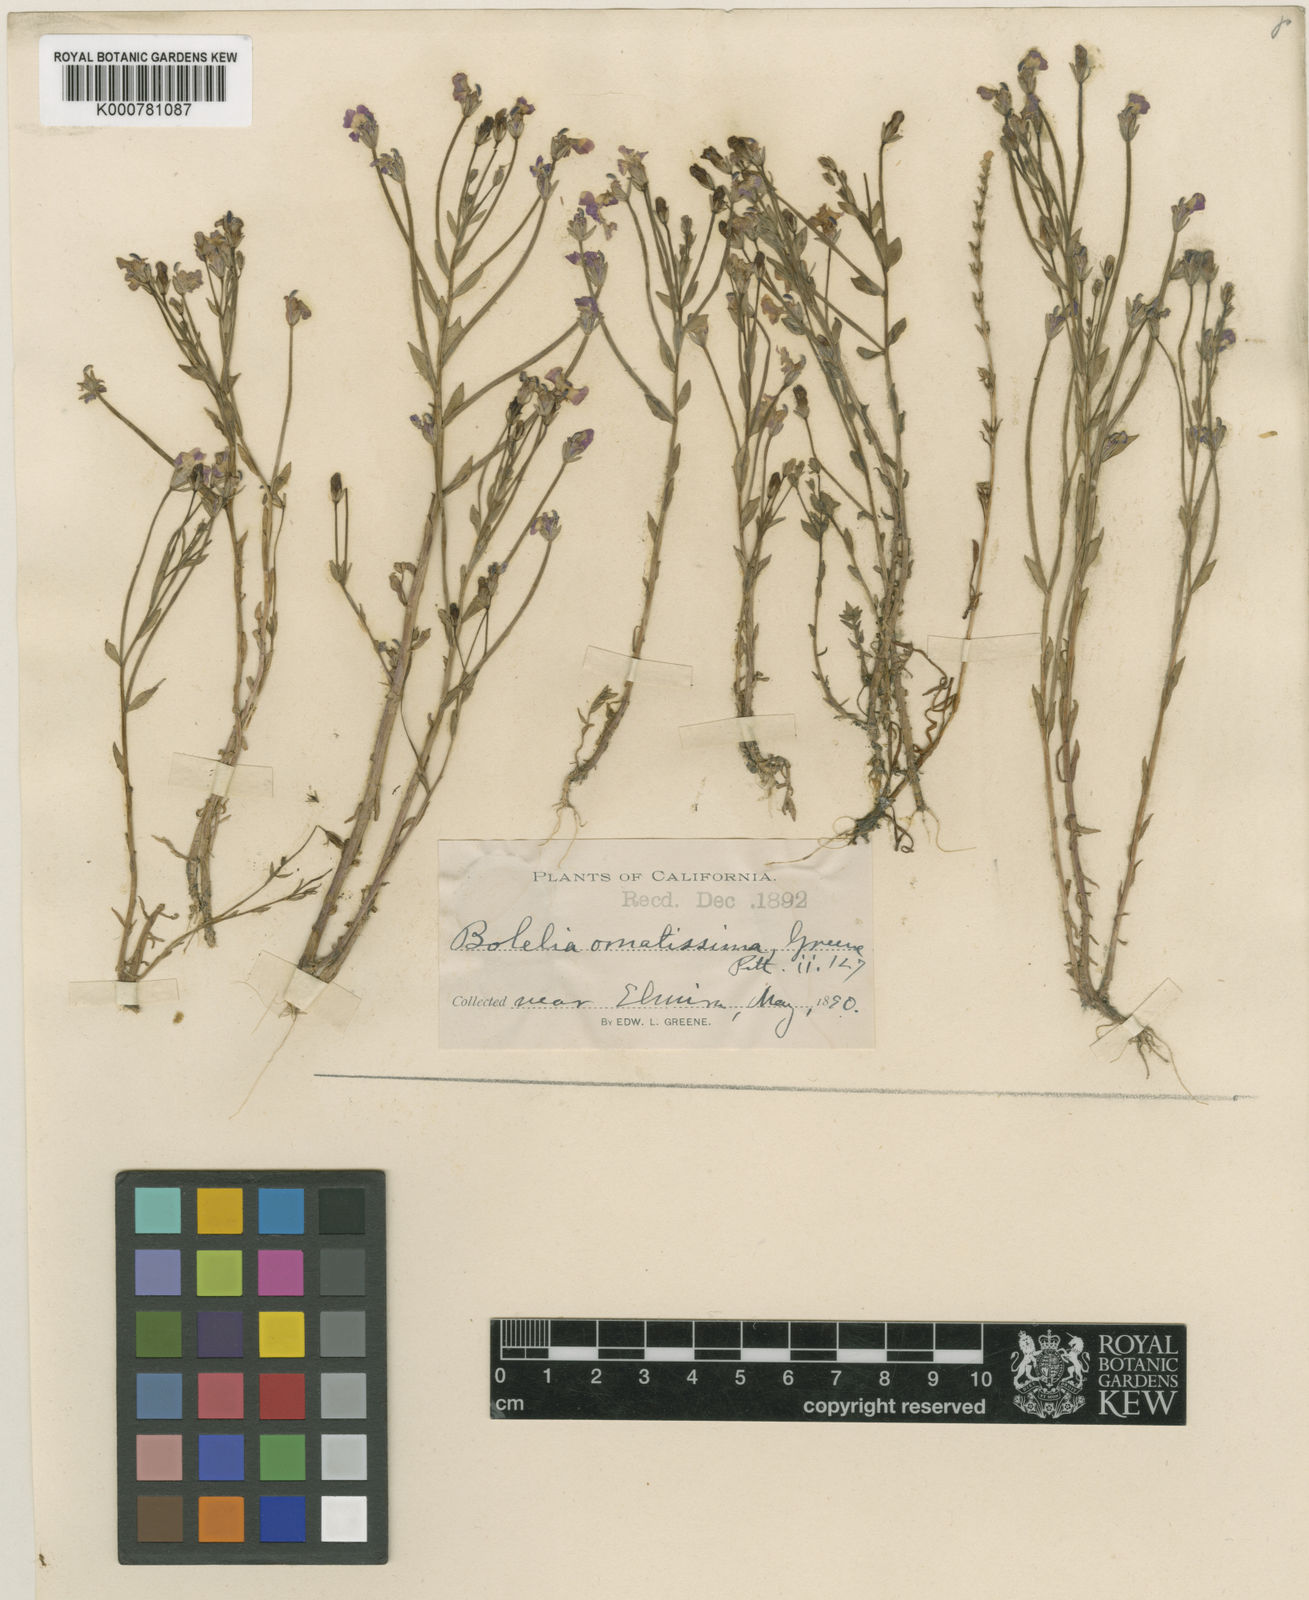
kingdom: Plantae
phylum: Tracheophyta
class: Magnoliopsida
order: Asterales
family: Campanulaceae
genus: Downingia
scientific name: Downingia ornatissima
